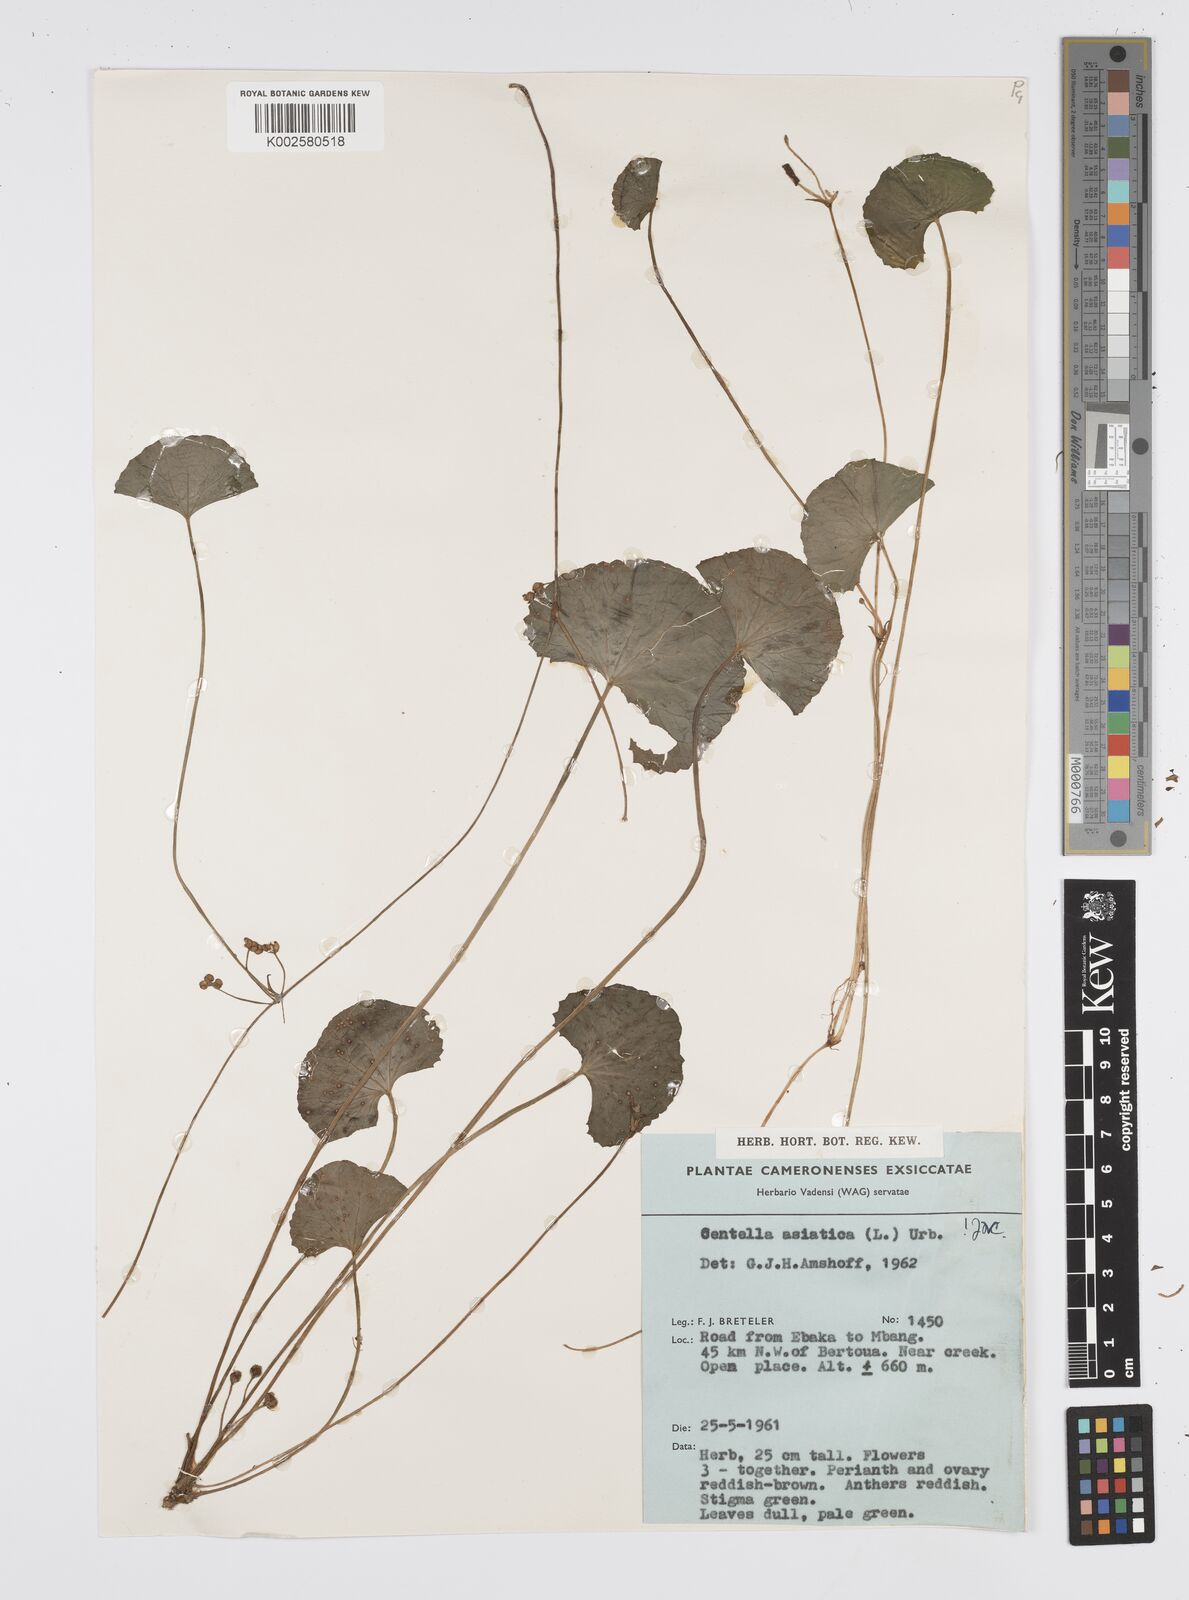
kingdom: Plantae
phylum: Tracheophyta
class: Magnoliopsida
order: Apiales
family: Apiaceae
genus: Centella
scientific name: Centella asiatica
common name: Spadeleaf
